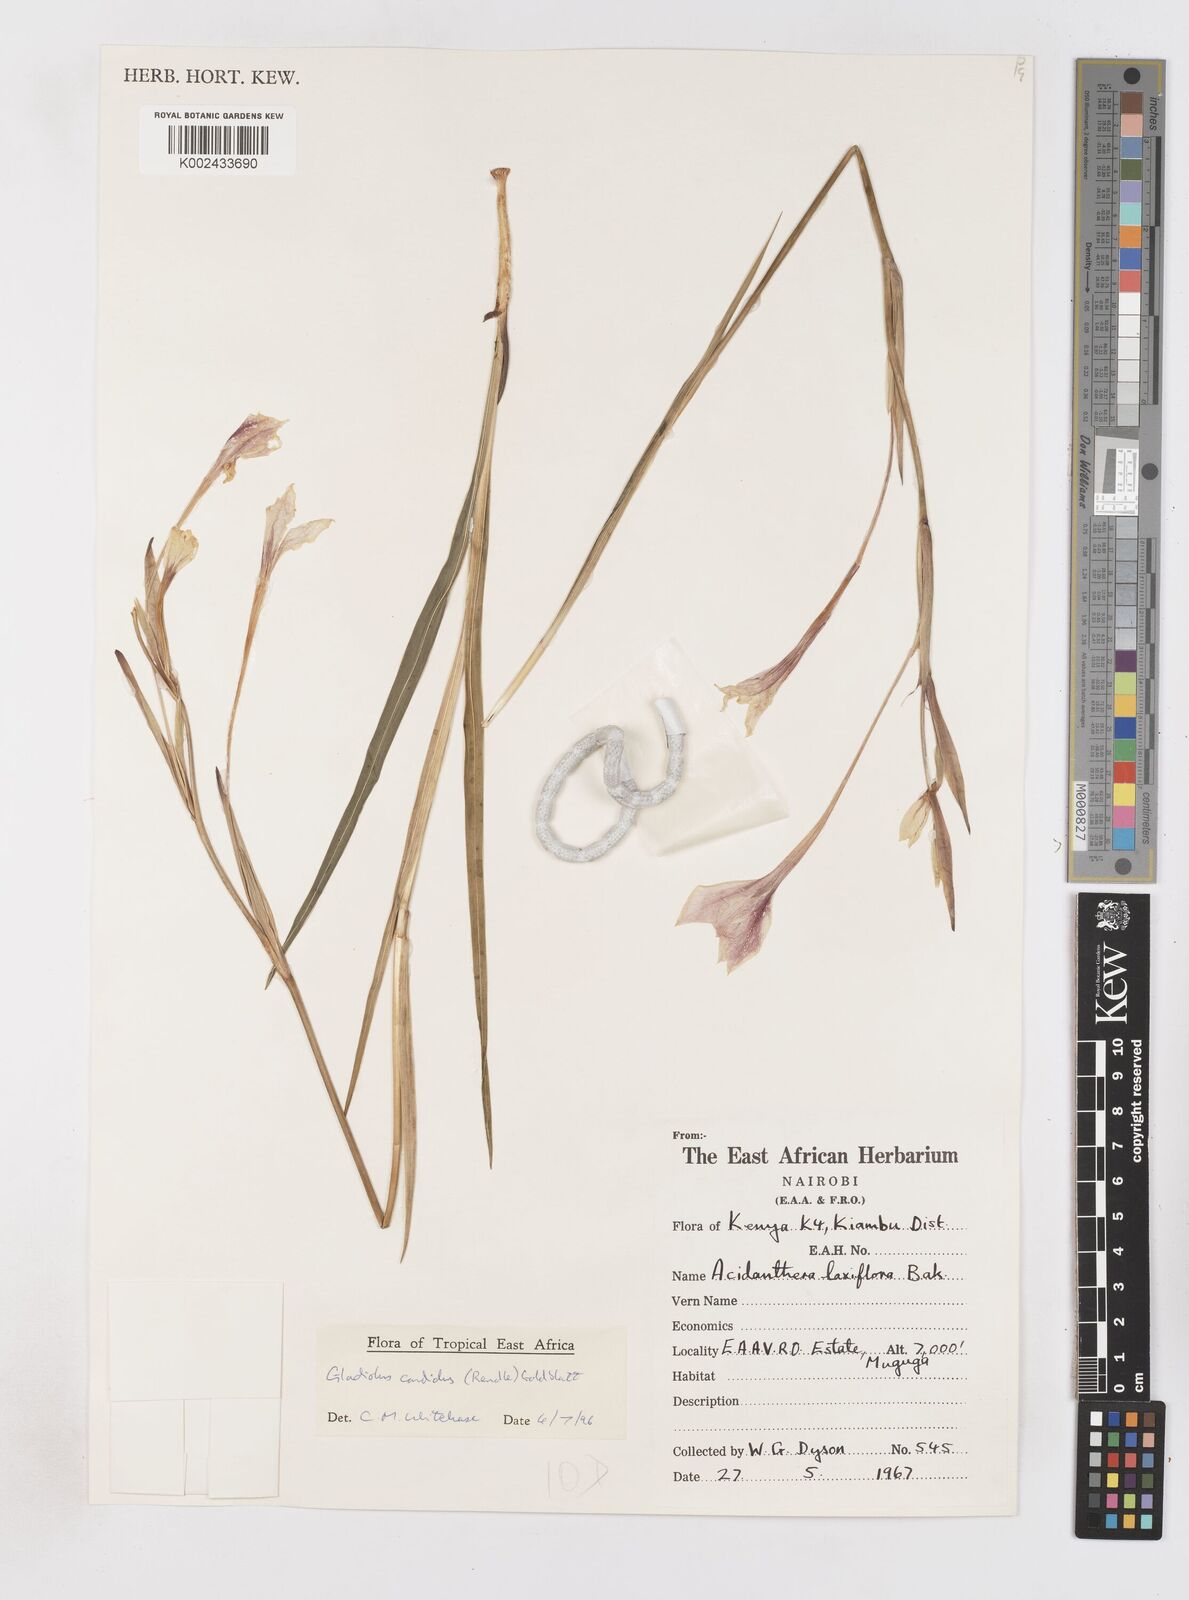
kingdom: Plantae
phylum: Tracheophyta
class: Liliopsida
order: Asparagales
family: Iridaceae
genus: Gladiolus
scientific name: Gladiolus candidus
